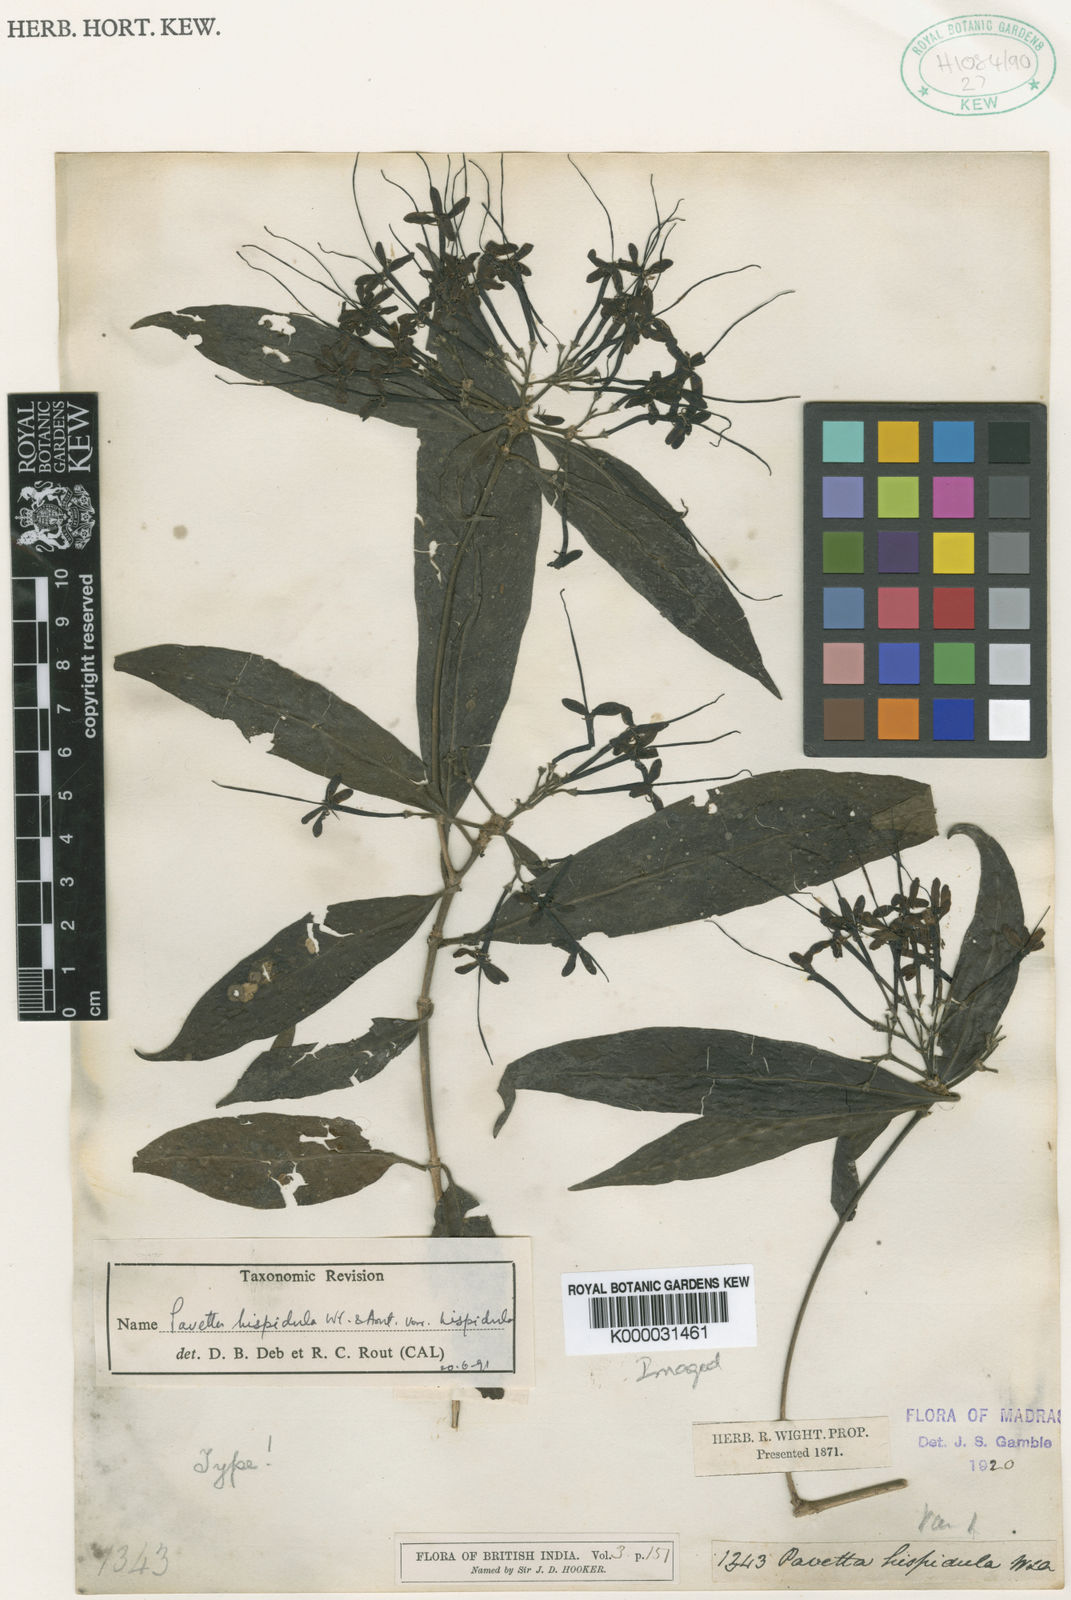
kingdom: Plantae
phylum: Tracheophyta
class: Magnoliopsida
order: Gentianales
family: Rubiaceae
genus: Pavetta
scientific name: Pavetta
